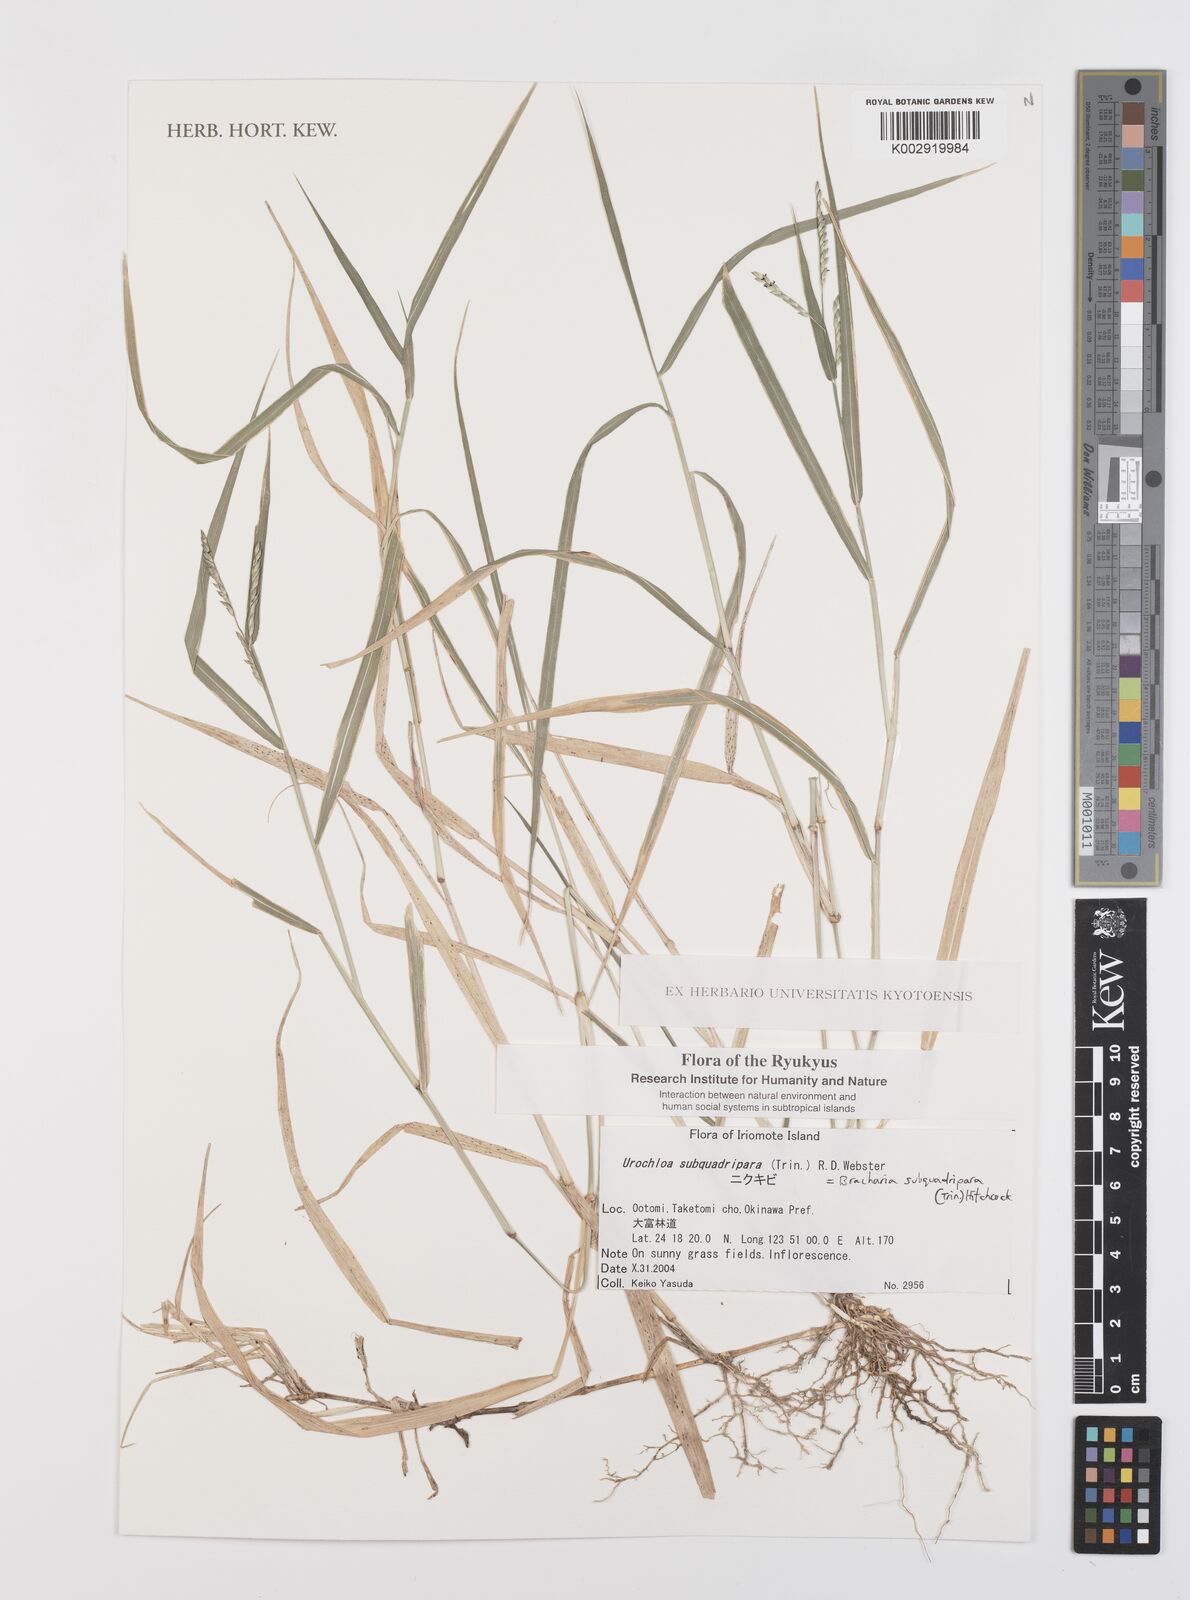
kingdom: Plantae
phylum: Tracheophyta
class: Liliopsida
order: Poales
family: Poaceae
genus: Urochloa
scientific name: Urochloa subquadripara
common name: Armgrass millet
